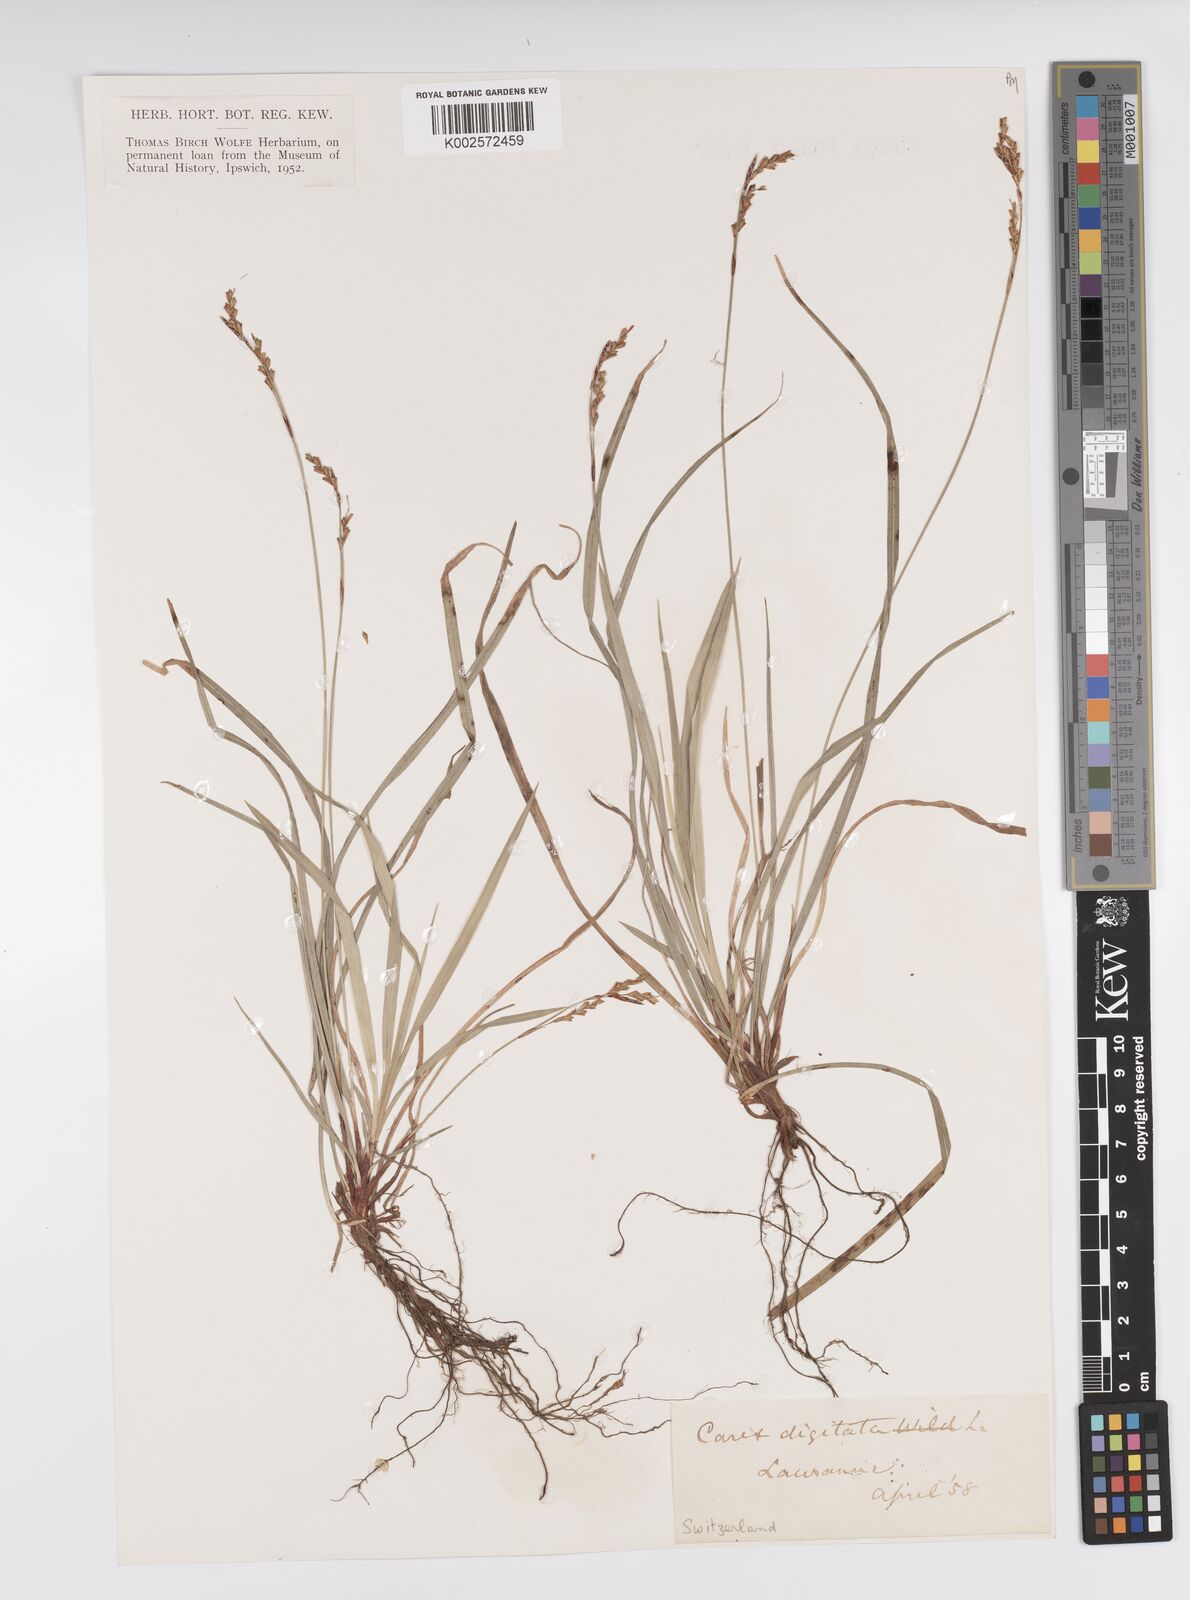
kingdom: Plantae
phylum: Tracheophyta
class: Liliopsida
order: Poales
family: Cyperaceae
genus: Carex
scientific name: Carex digitata
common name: Fingered sedge
